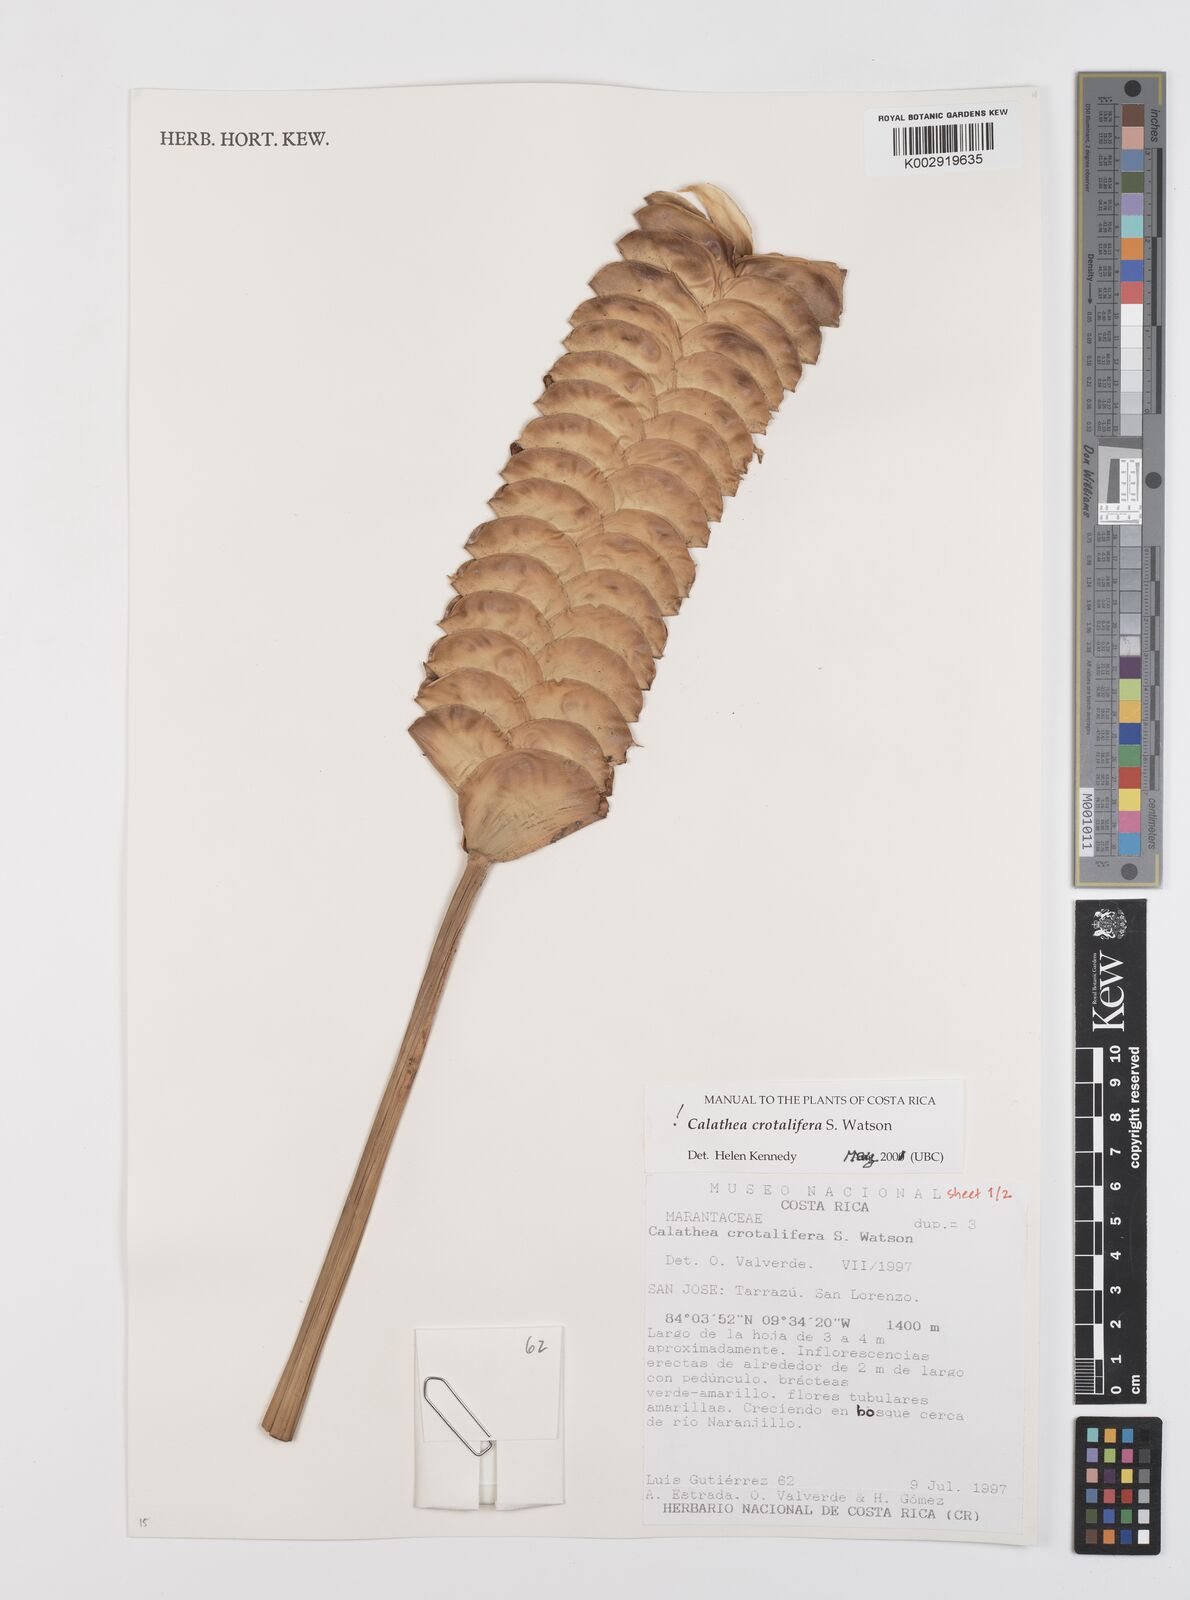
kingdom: Plantae
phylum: Tracheophyta
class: Liliopsida
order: Zingiberales
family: Marantaceae
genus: Calathea
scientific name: Calathea crotalifera
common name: Rattlesnake plant
